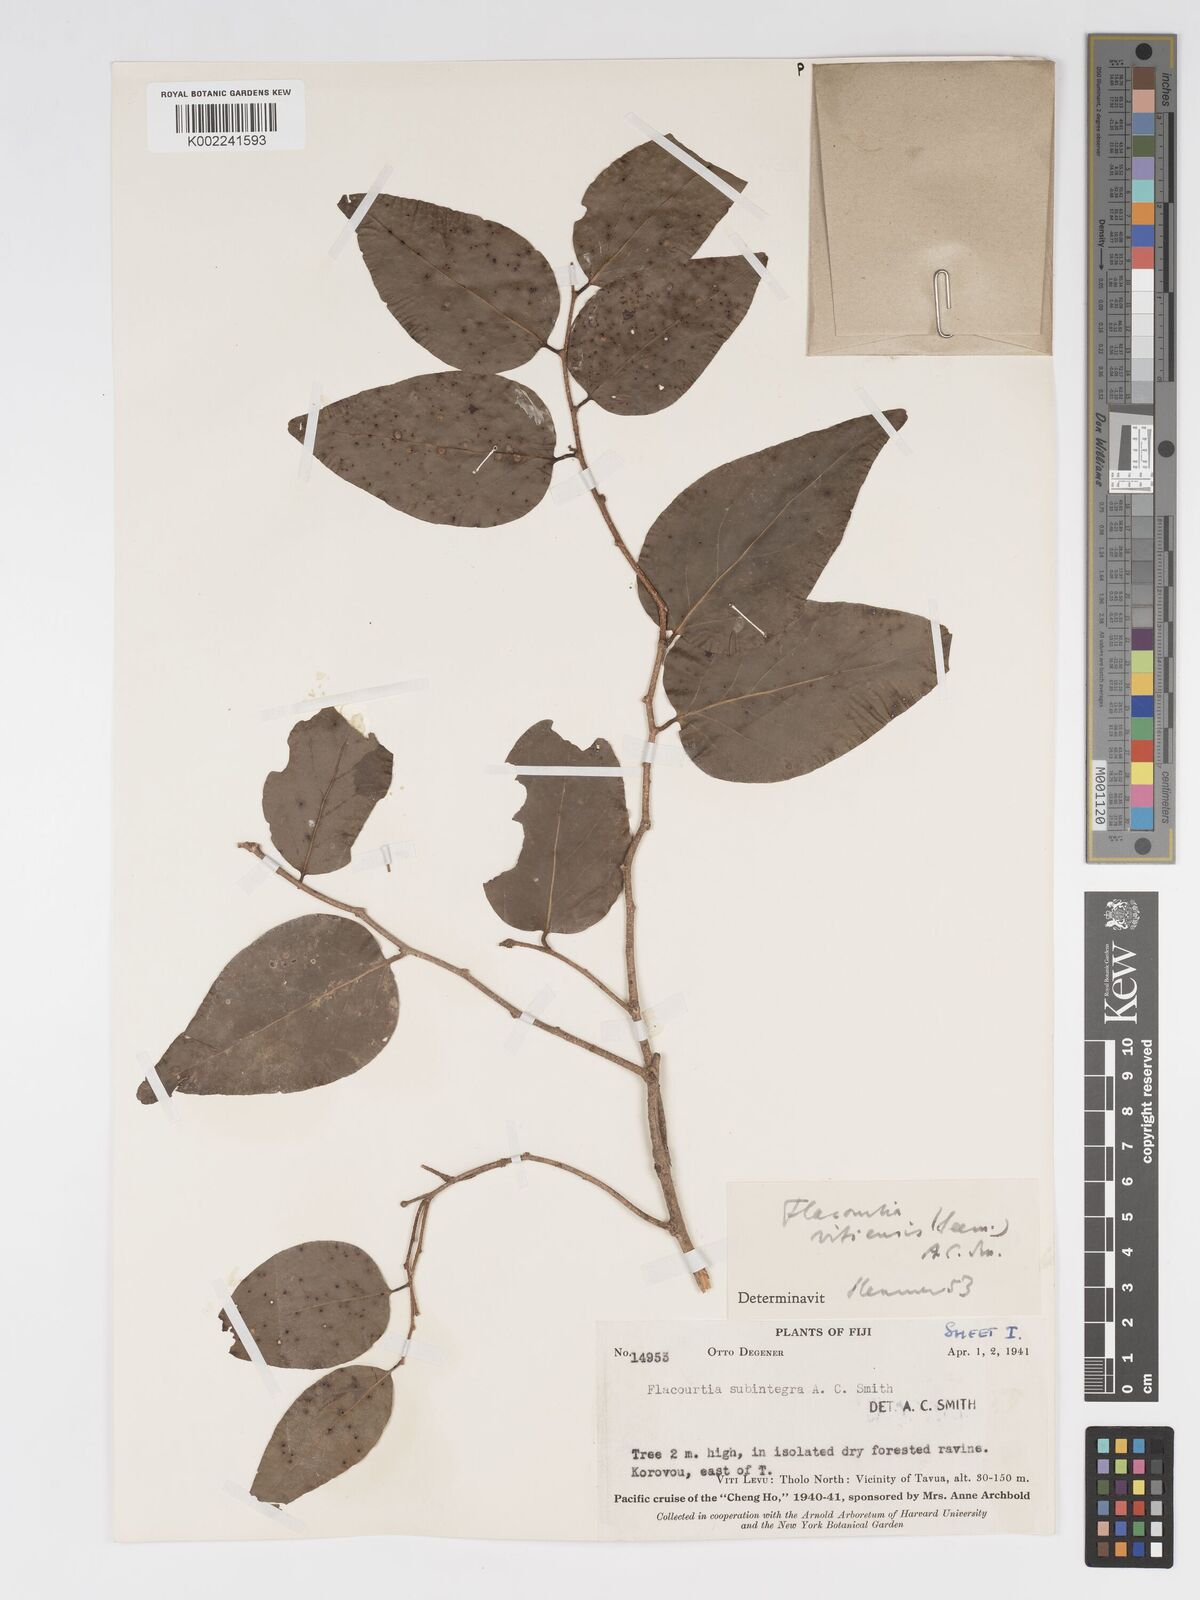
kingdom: Plantae
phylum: Tracheophyta
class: Magnoliopsida
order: Malpighiales
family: Salicaceae
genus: Flacourtia
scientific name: Flacourtia vitiensis
